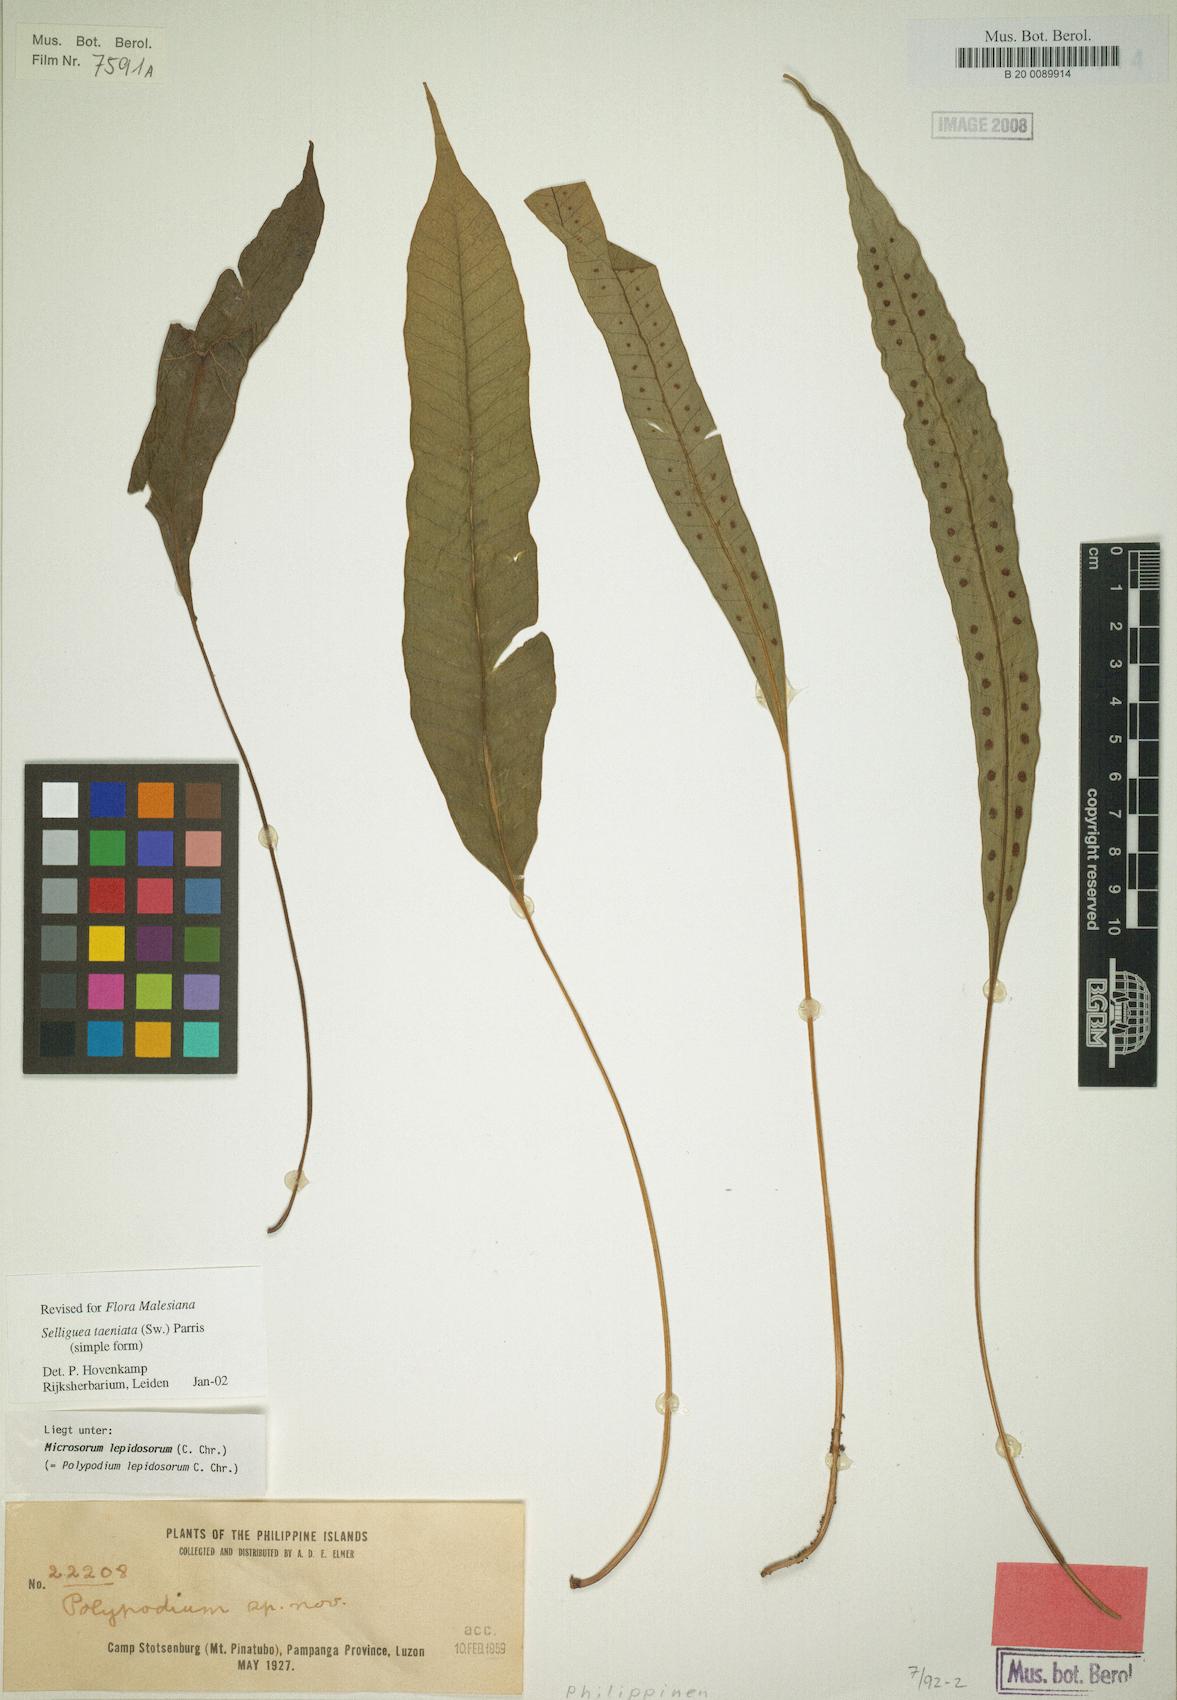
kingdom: Plantae
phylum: Tracheophyta
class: Polypodiopsida
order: Polypodiales
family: Polypodiaceae
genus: Selliguea
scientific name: Selliguea taeniata
